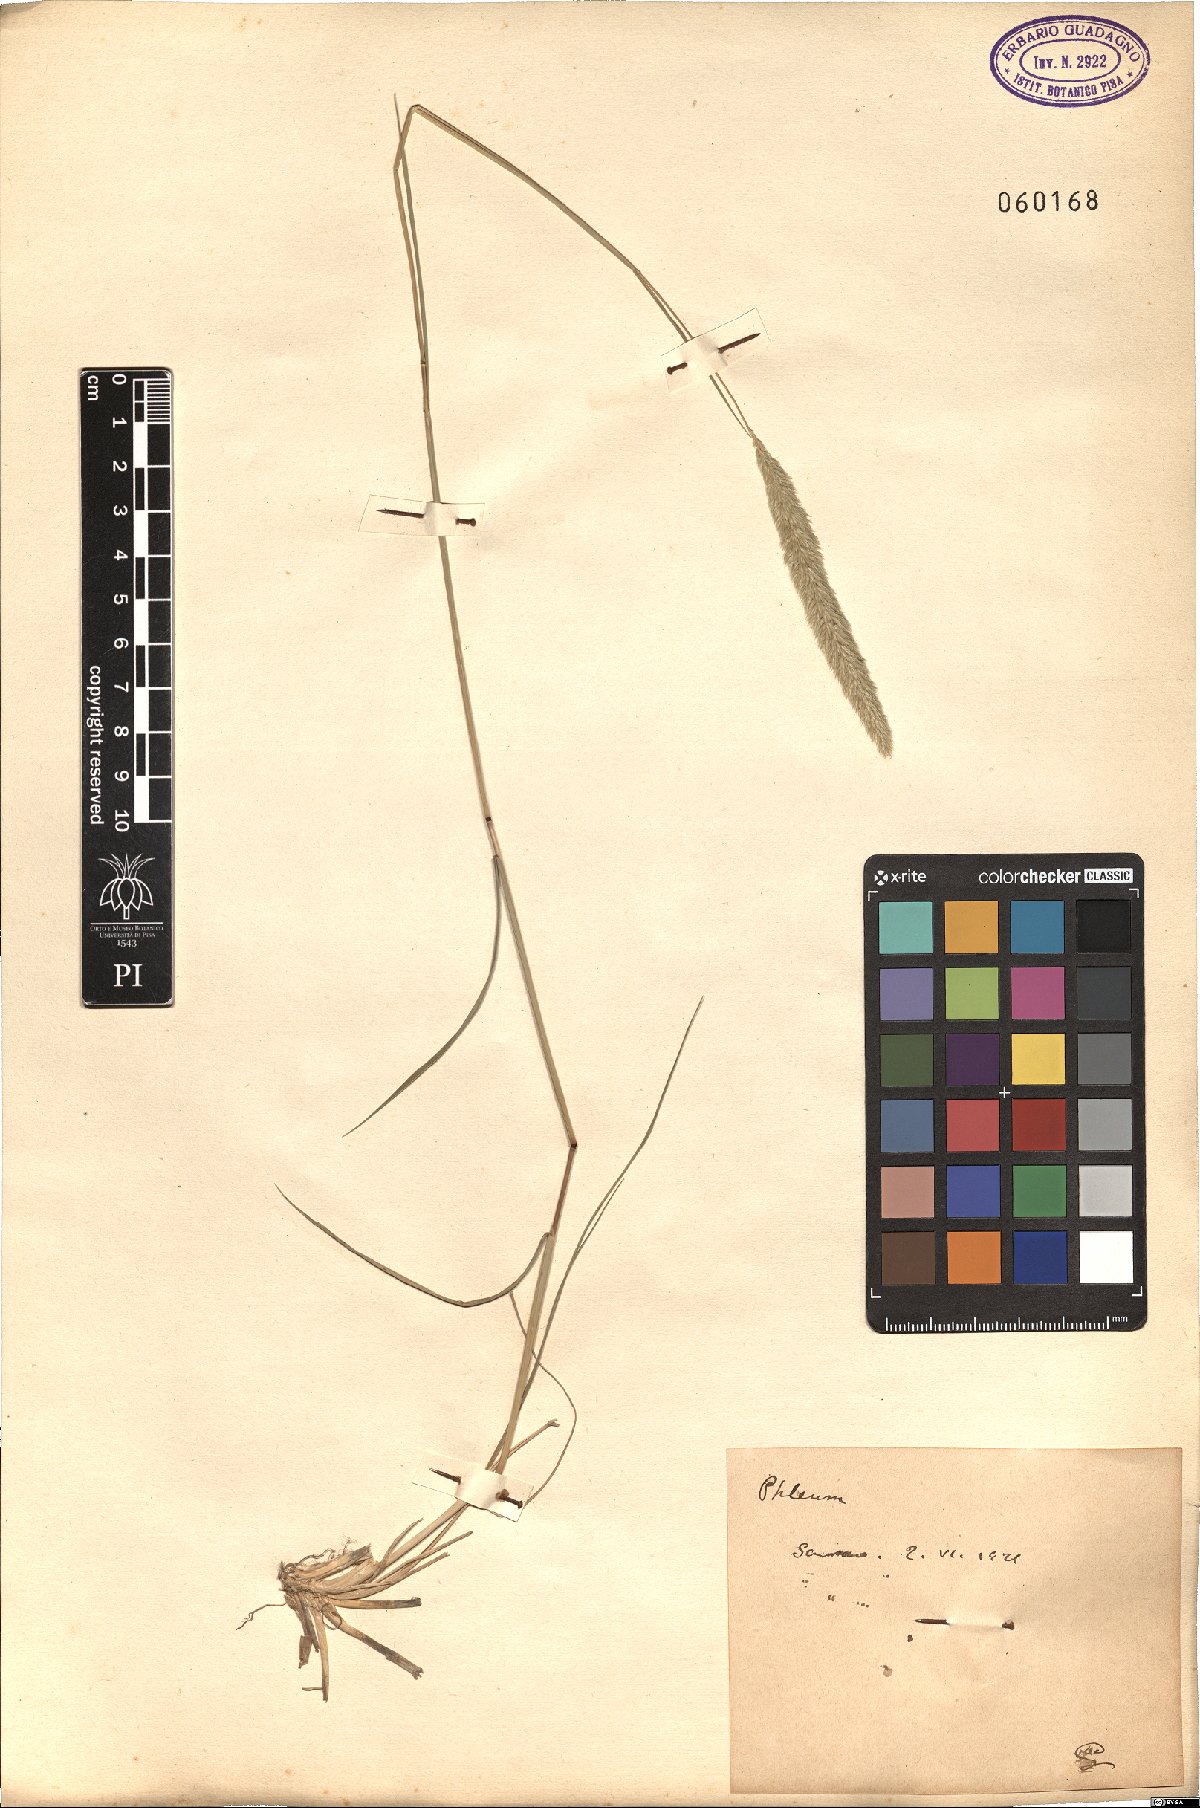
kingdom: Plantae
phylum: Tracheophyta
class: Liliopsida
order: Poales
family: Poaceae
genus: Phleum
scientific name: Phleum
